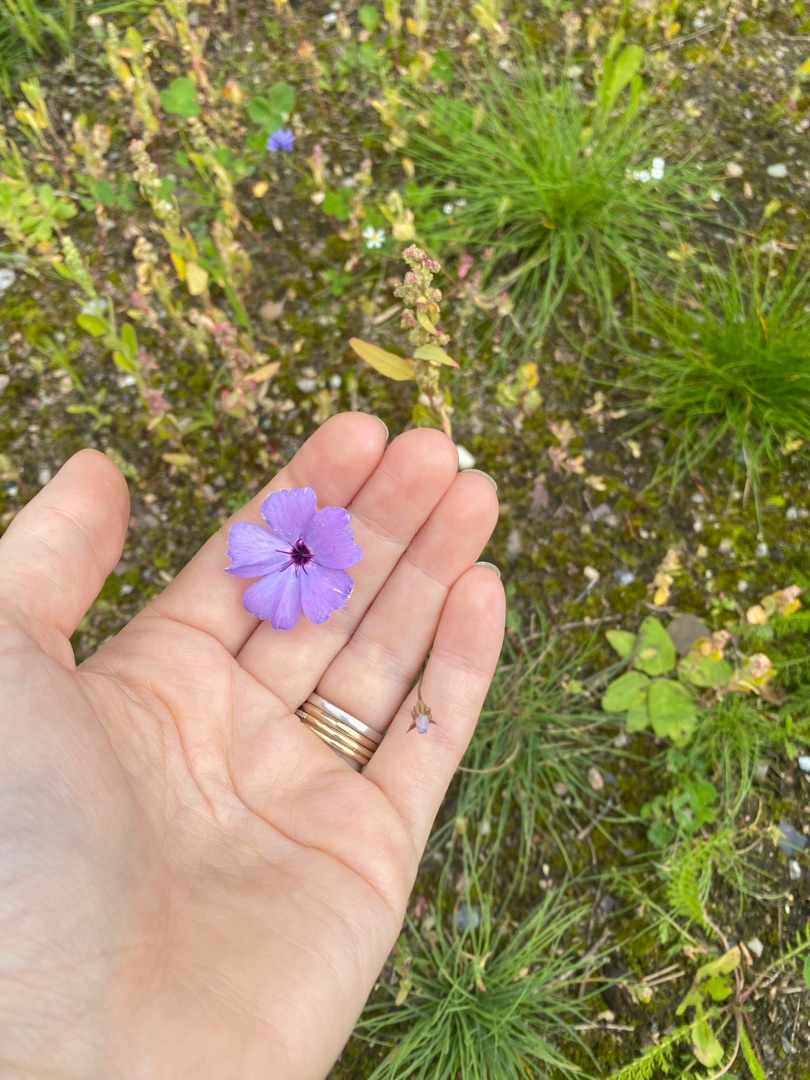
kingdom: Plantae
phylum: Tracheophyta
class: Magnoliopsida
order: Caryophyllales
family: Caryophyllaceae
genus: Eudianthe
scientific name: Eudianthe coeli-rosa
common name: Himmelrose
